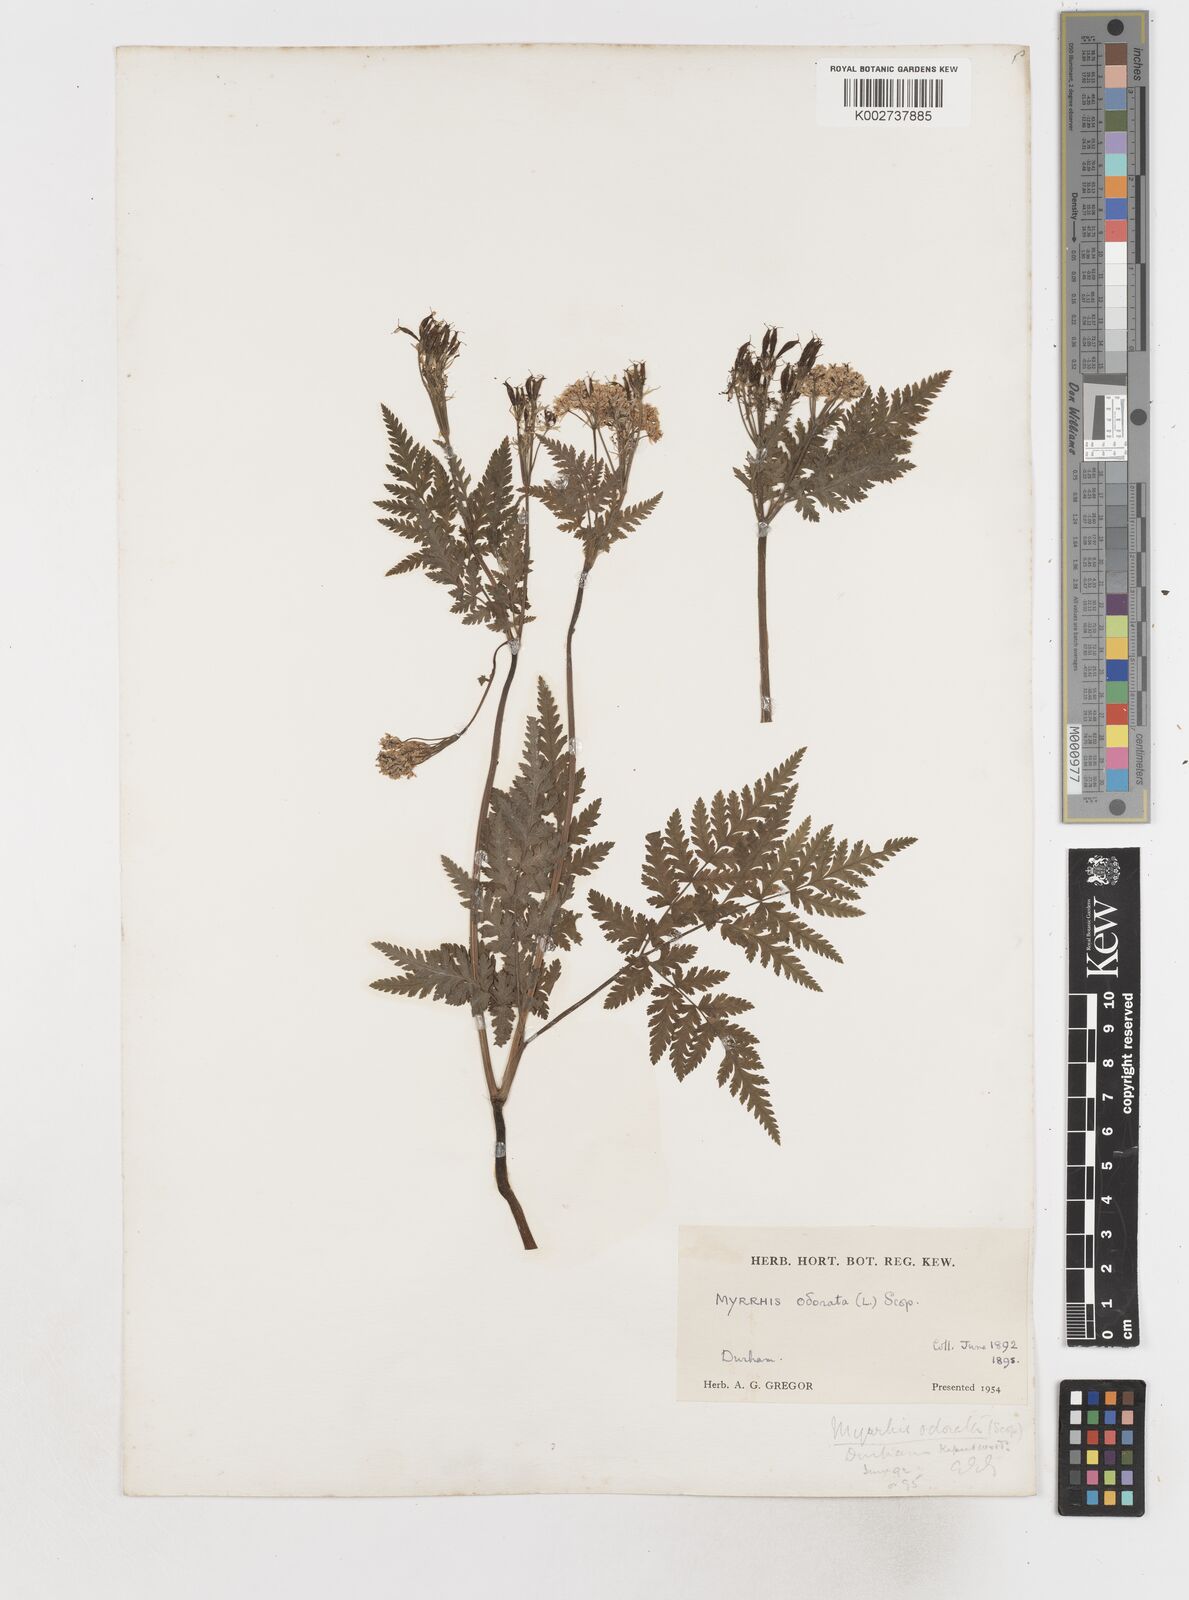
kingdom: Plantae
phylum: Tracheophyta
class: Magnoliopsida
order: Apiales
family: Apiaceae
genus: Myrrhis
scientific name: Myrrhis odorata
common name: Sweet cicely
